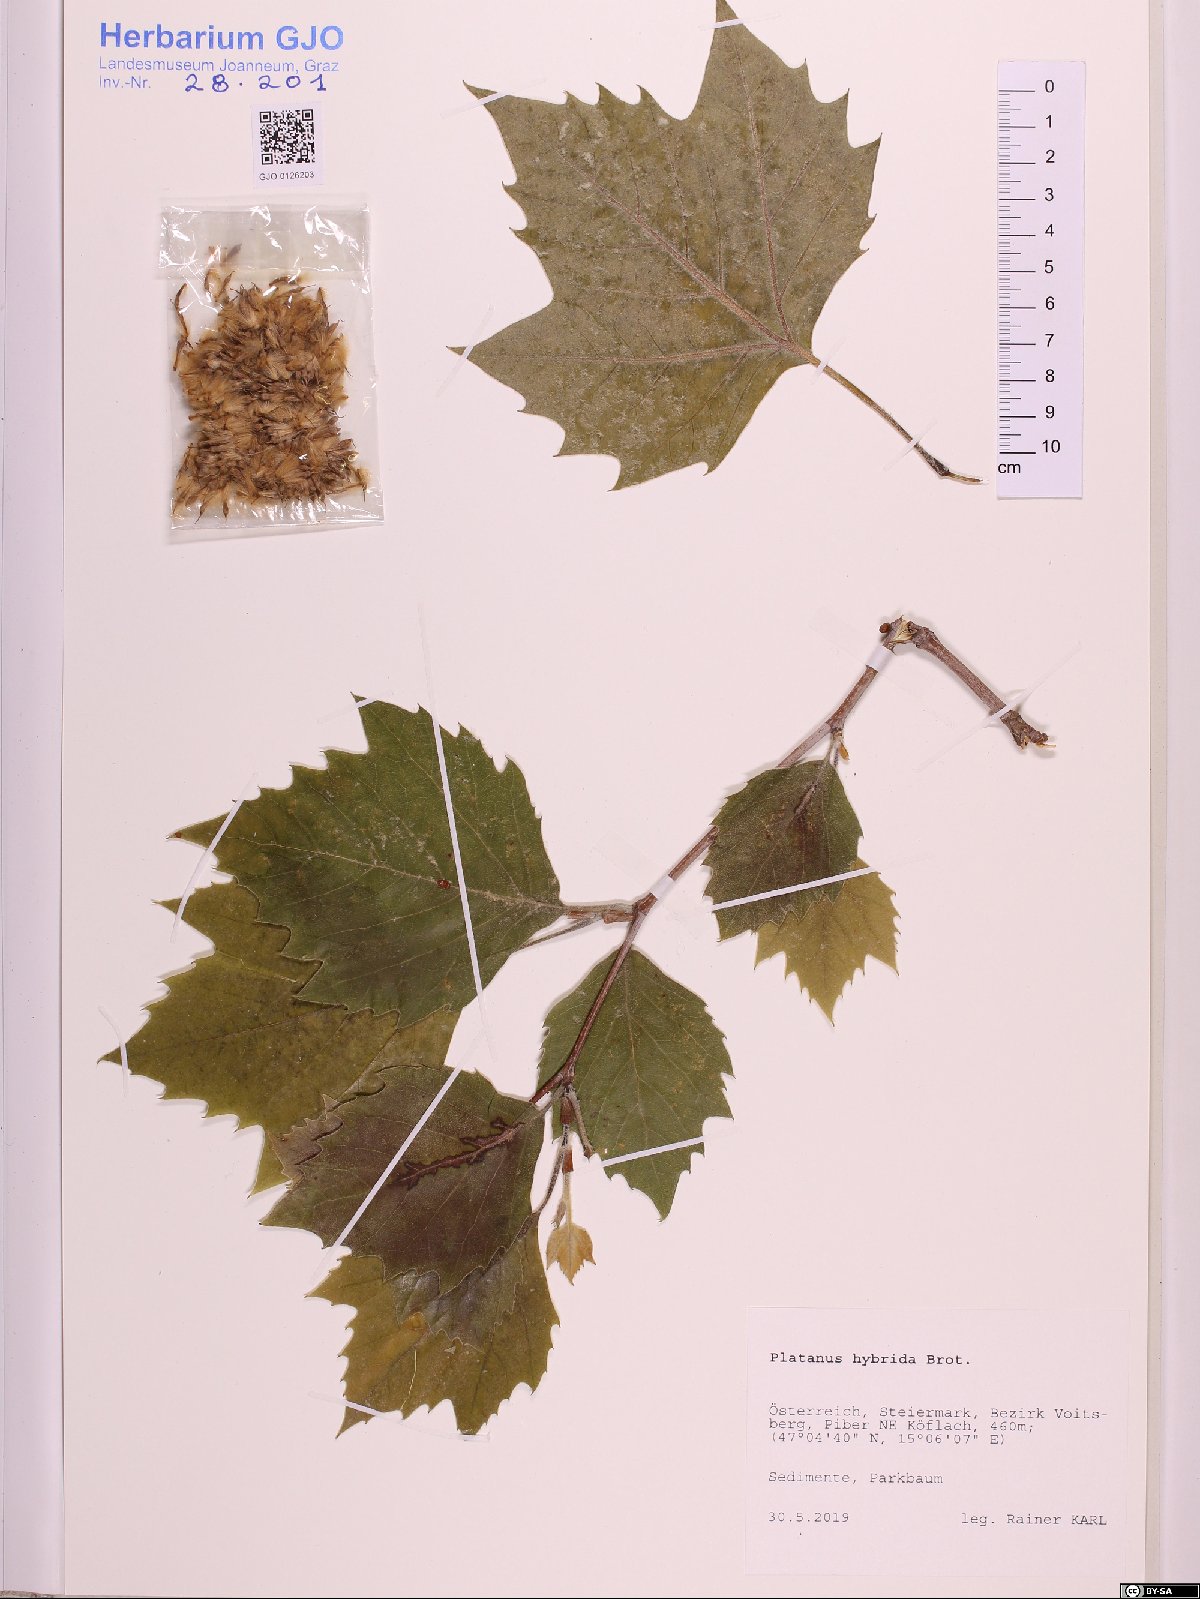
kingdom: Plantae
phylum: Tracheophyta
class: Magnoliopsida
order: Proteales
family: Platanaceae
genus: Platanus
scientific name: Platanus hispanica
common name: London plane
